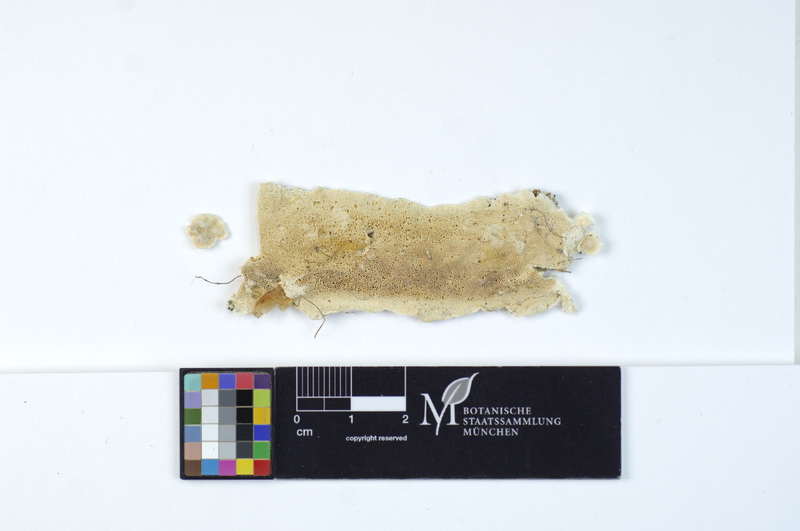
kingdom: Plantae
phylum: Tracheophyta
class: Pinopsida
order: Pinales
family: Pinaceae
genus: Picea
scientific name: Picea abies
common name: Norway spruce
